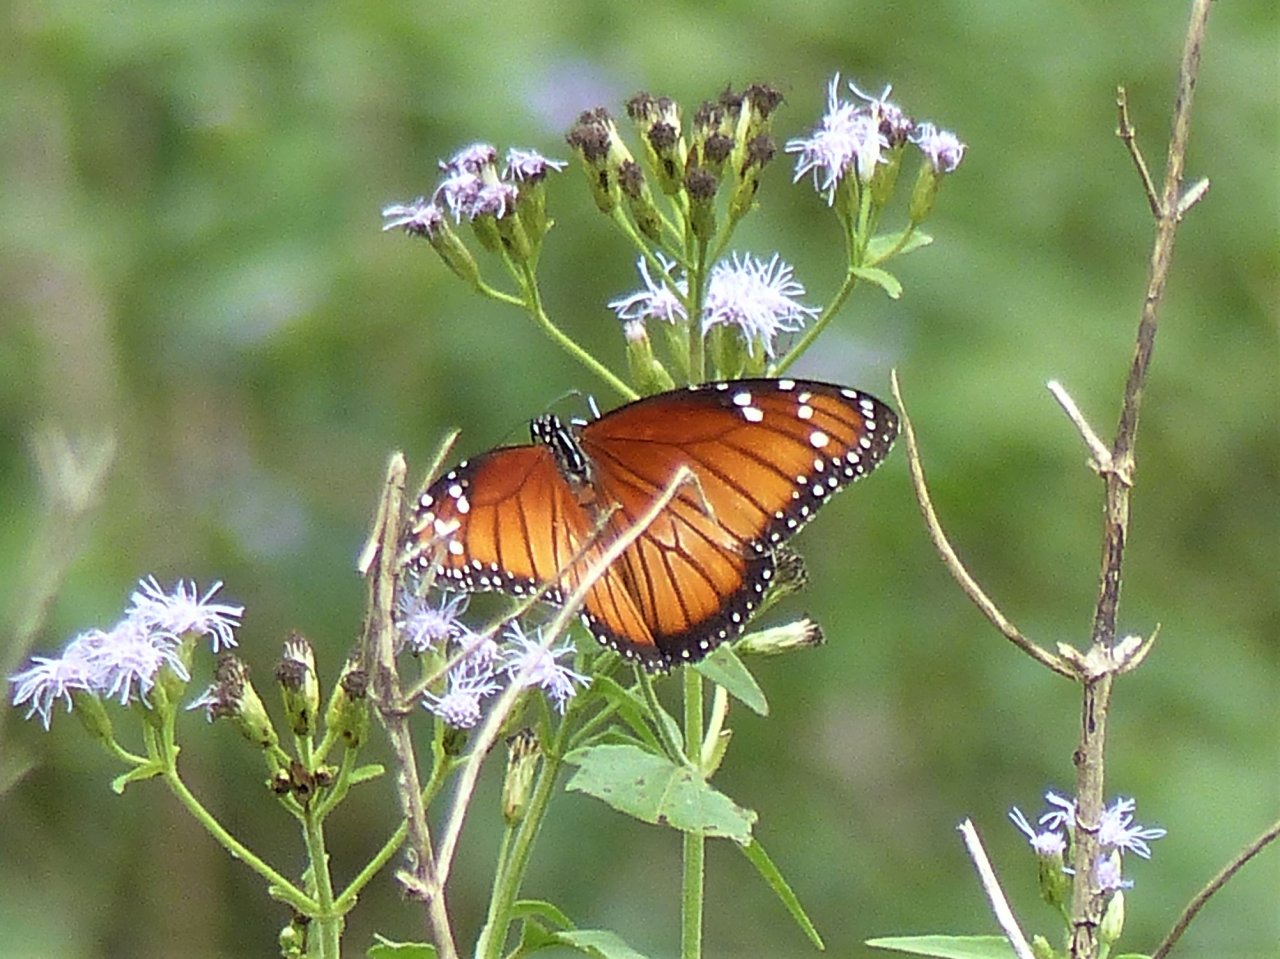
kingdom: Animalia
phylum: Arthropoda
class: Insecta
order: Lepidoptera
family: Nymphalidae
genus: Danaus
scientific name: Danaus eresimus
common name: Soldier
